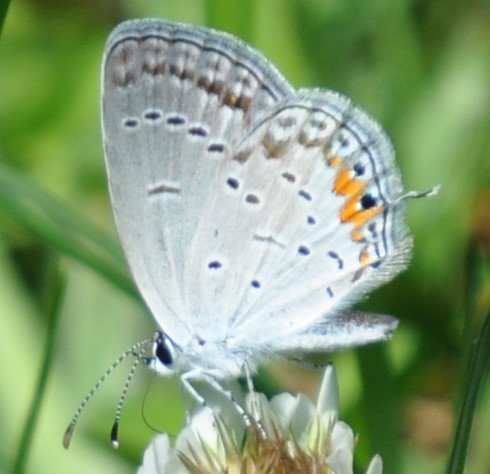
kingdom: Animalia
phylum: Arthropoda
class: Insecta
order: Lepidoptera
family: Lycaenidae
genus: Elkalyce
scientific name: Elkalyce comyntas
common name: Eastern Tailed-Blue
